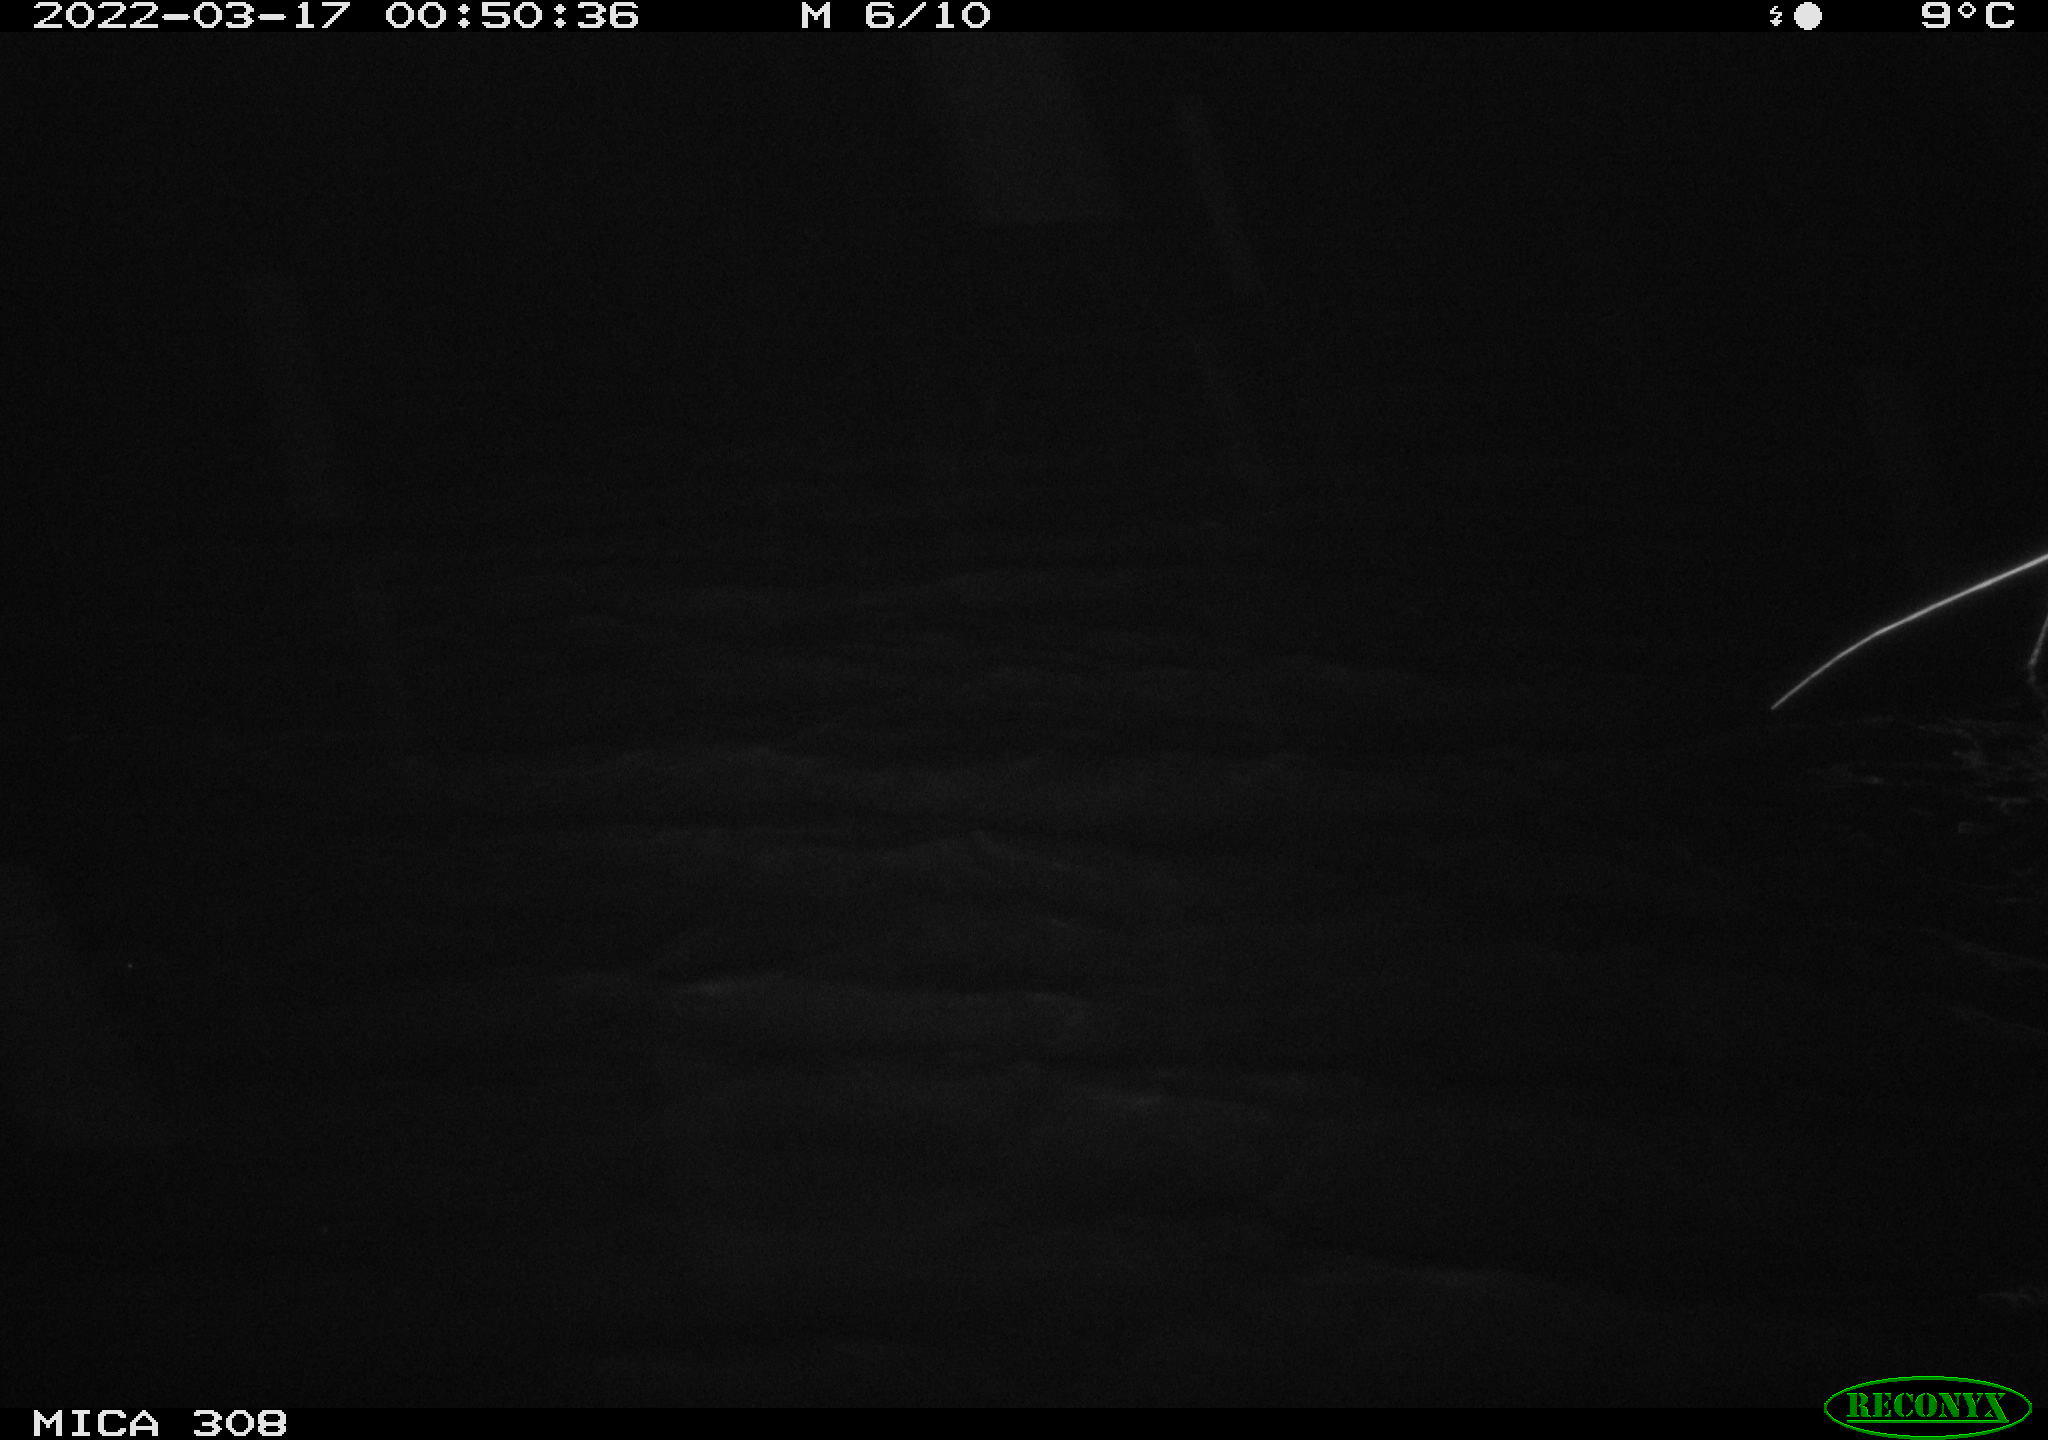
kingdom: Animalia
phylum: Chordata
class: Aves
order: Anseriformes
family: Anatidae
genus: Anas
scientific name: Anas platyrhynchos
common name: Mallard
